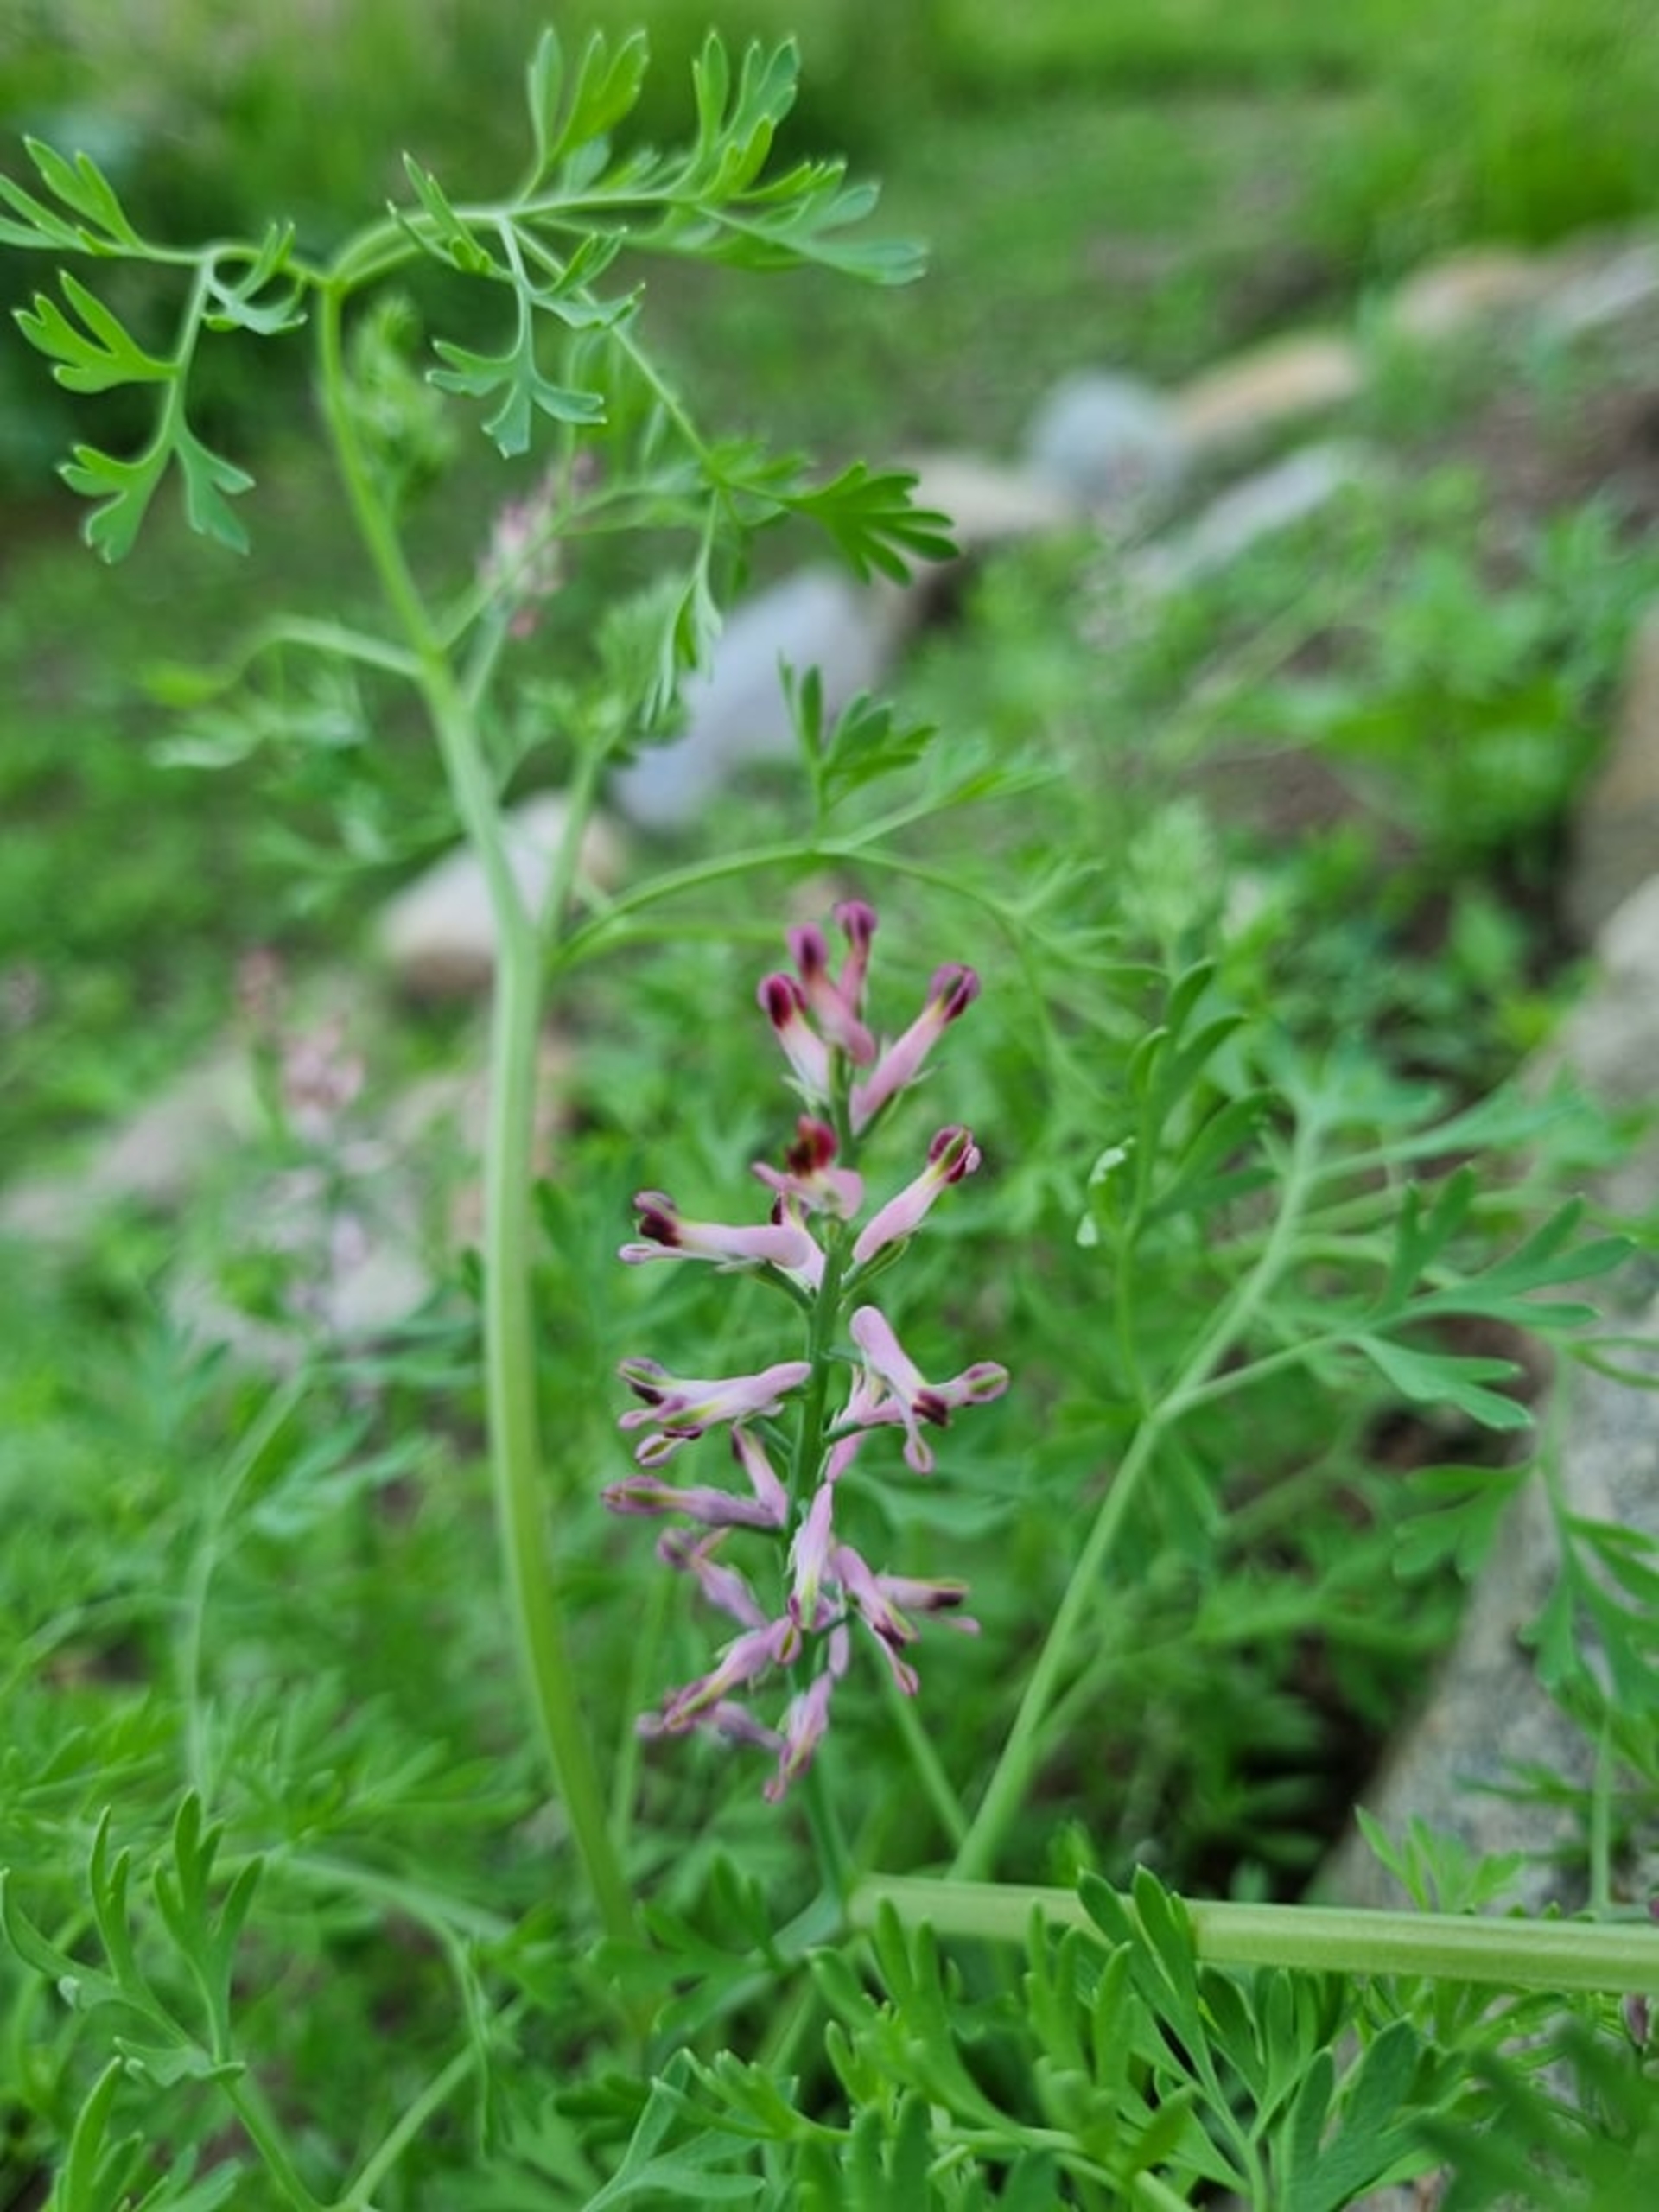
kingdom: Plantae
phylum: Tracheophyta
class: Magnoliopsida
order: Ranunculales
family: Papaveraceae
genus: Fumaria
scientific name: Fumaria officinalis
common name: Læge-jordrøg
